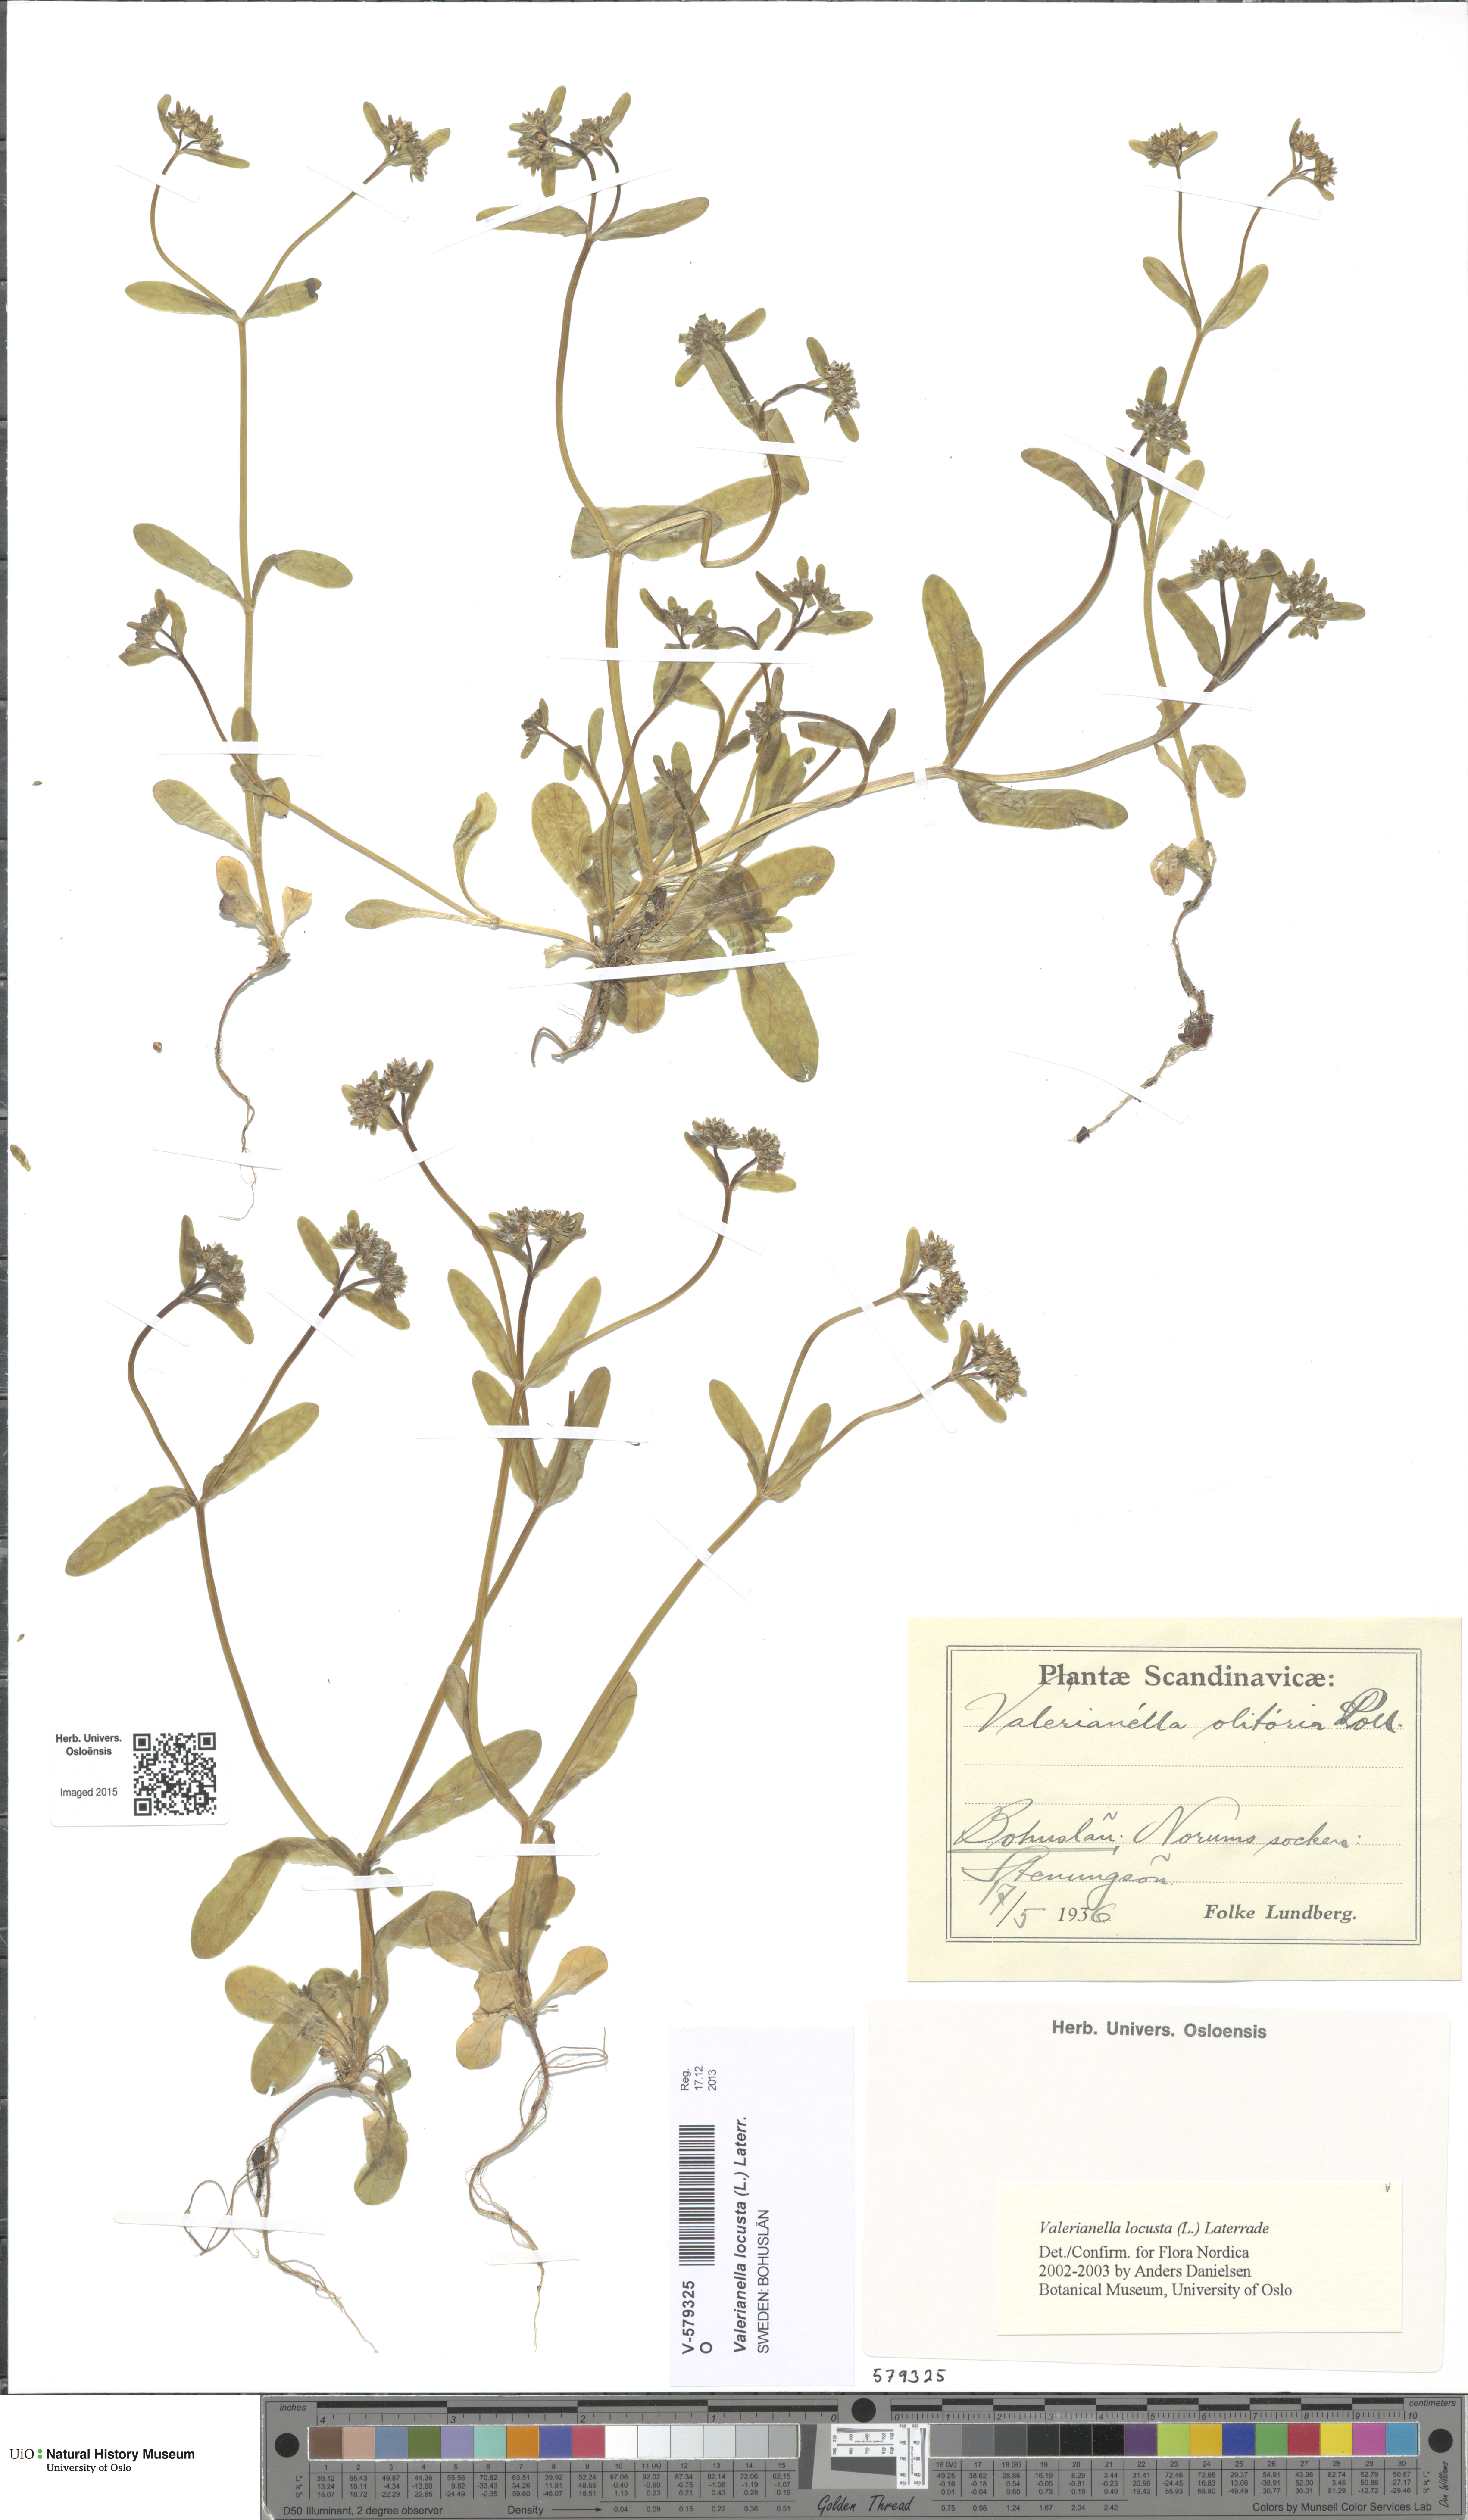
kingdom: Plantae
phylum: Tracheophyta
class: Magnoliopsida
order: Dipsacales
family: Caprifoliaceae
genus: Valerianella
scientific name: Valerianella locusta
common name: Common cornsalad
